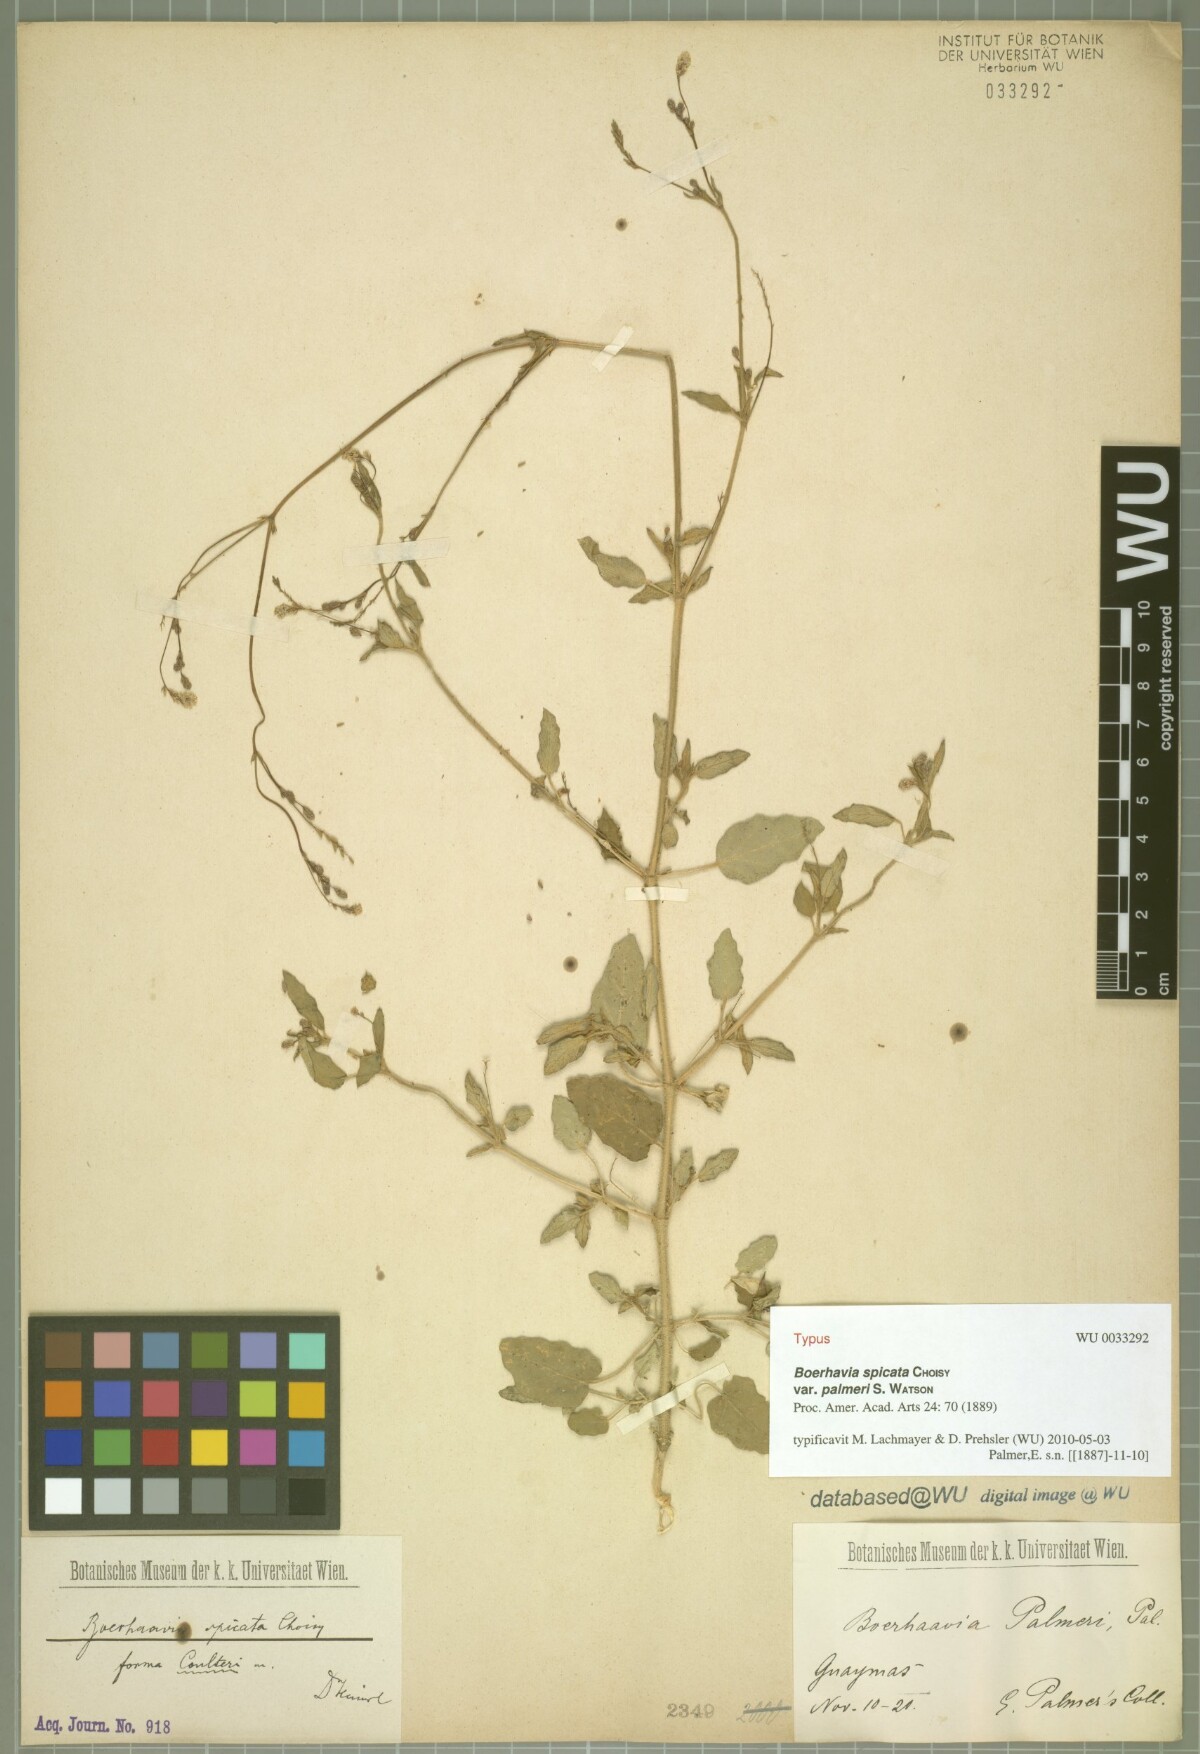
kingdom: Plantae
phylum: Tracheophyta
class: Magnoliopsida
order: Caryophyllales
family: Nyctaginaceae
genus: Boerhavia
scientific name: Boerhavia coulteri
